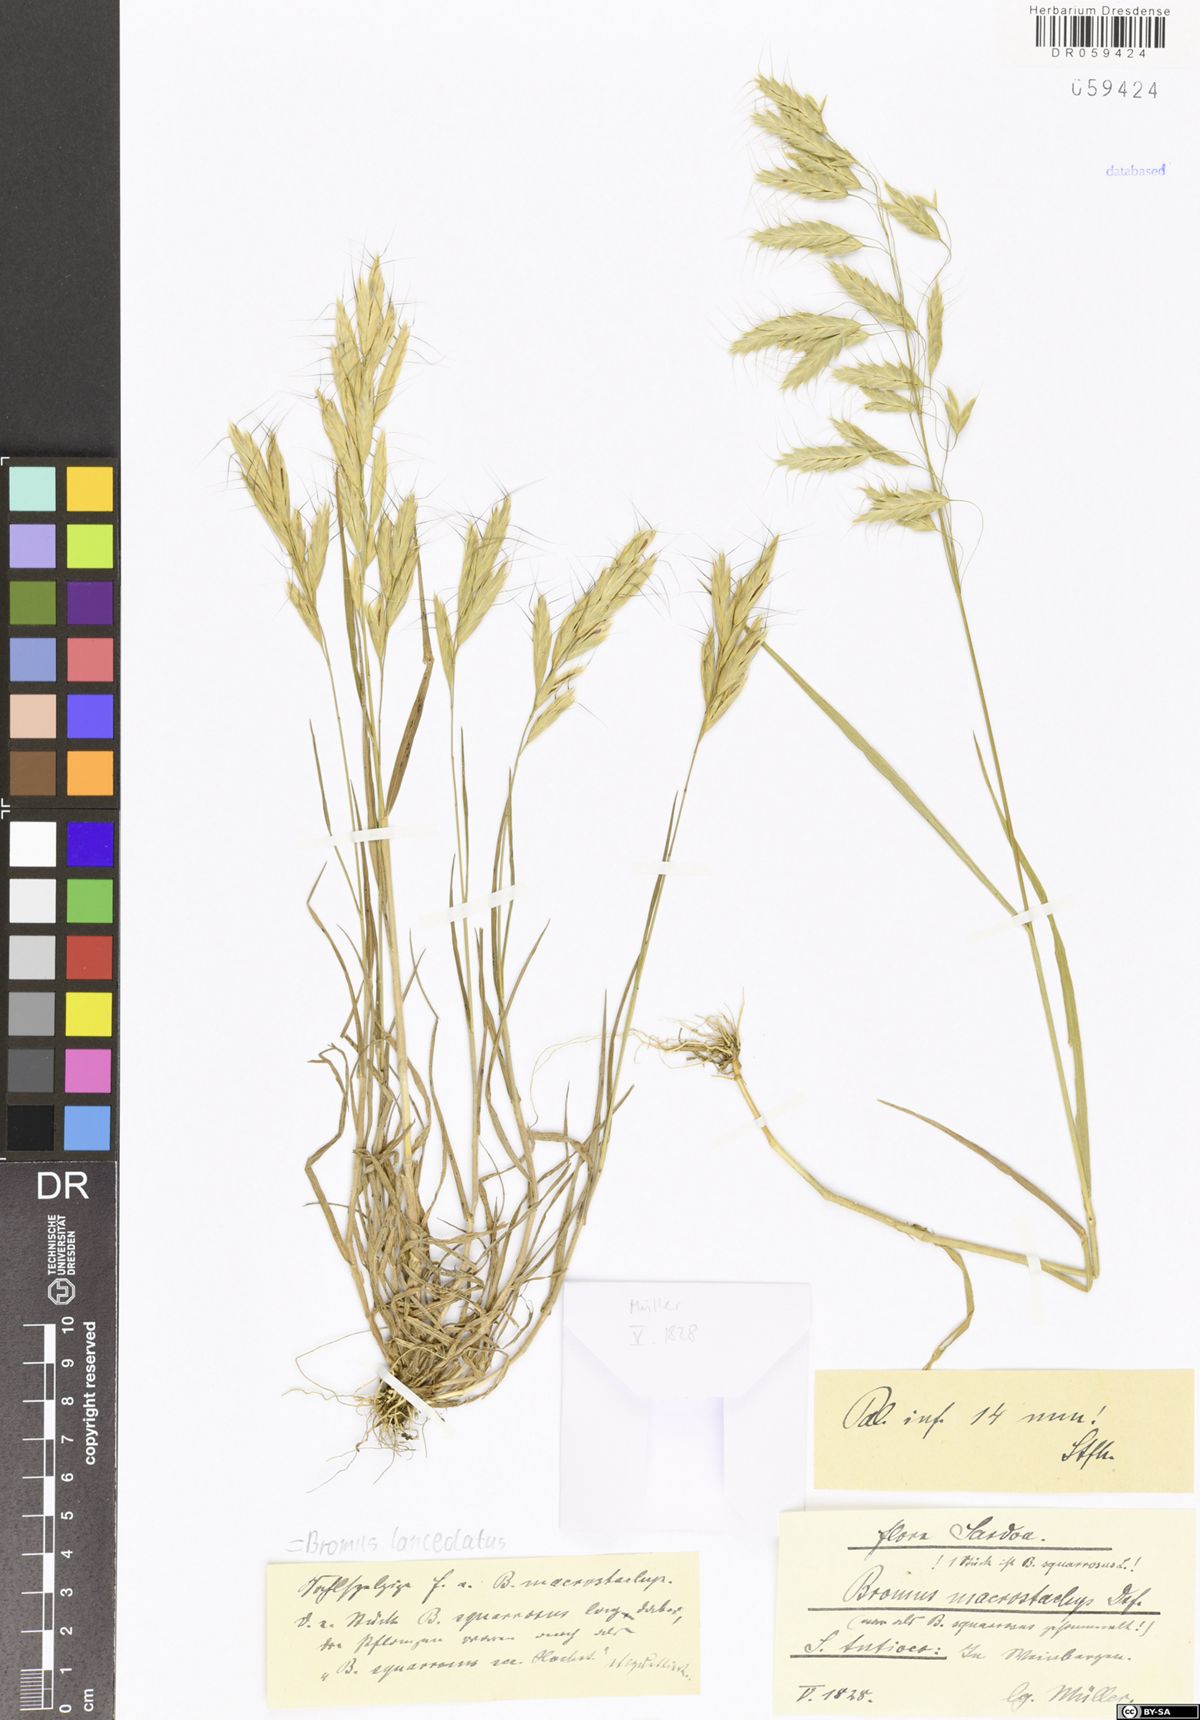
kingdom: Plantae
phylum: Tracheophyta
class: Liliopsida
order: Poales
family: Poaceae
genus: Bromus
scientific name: Bromus lanceolatus
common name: Mediterranean brome
